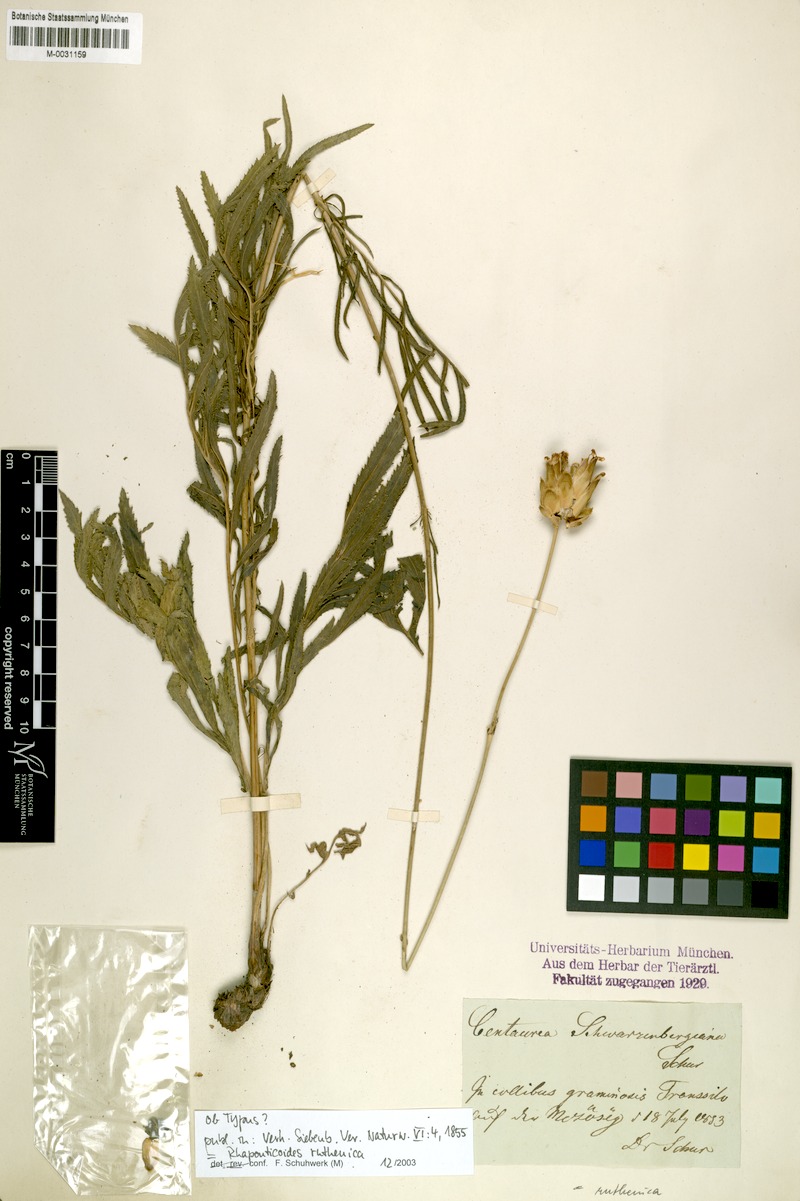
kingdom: Plantae
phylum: Tracheophyta
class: Magnoliopsida
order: Asterales
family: Asteraceae
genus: Rhaponticoides
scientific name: Rhaponticoides ruthenica
